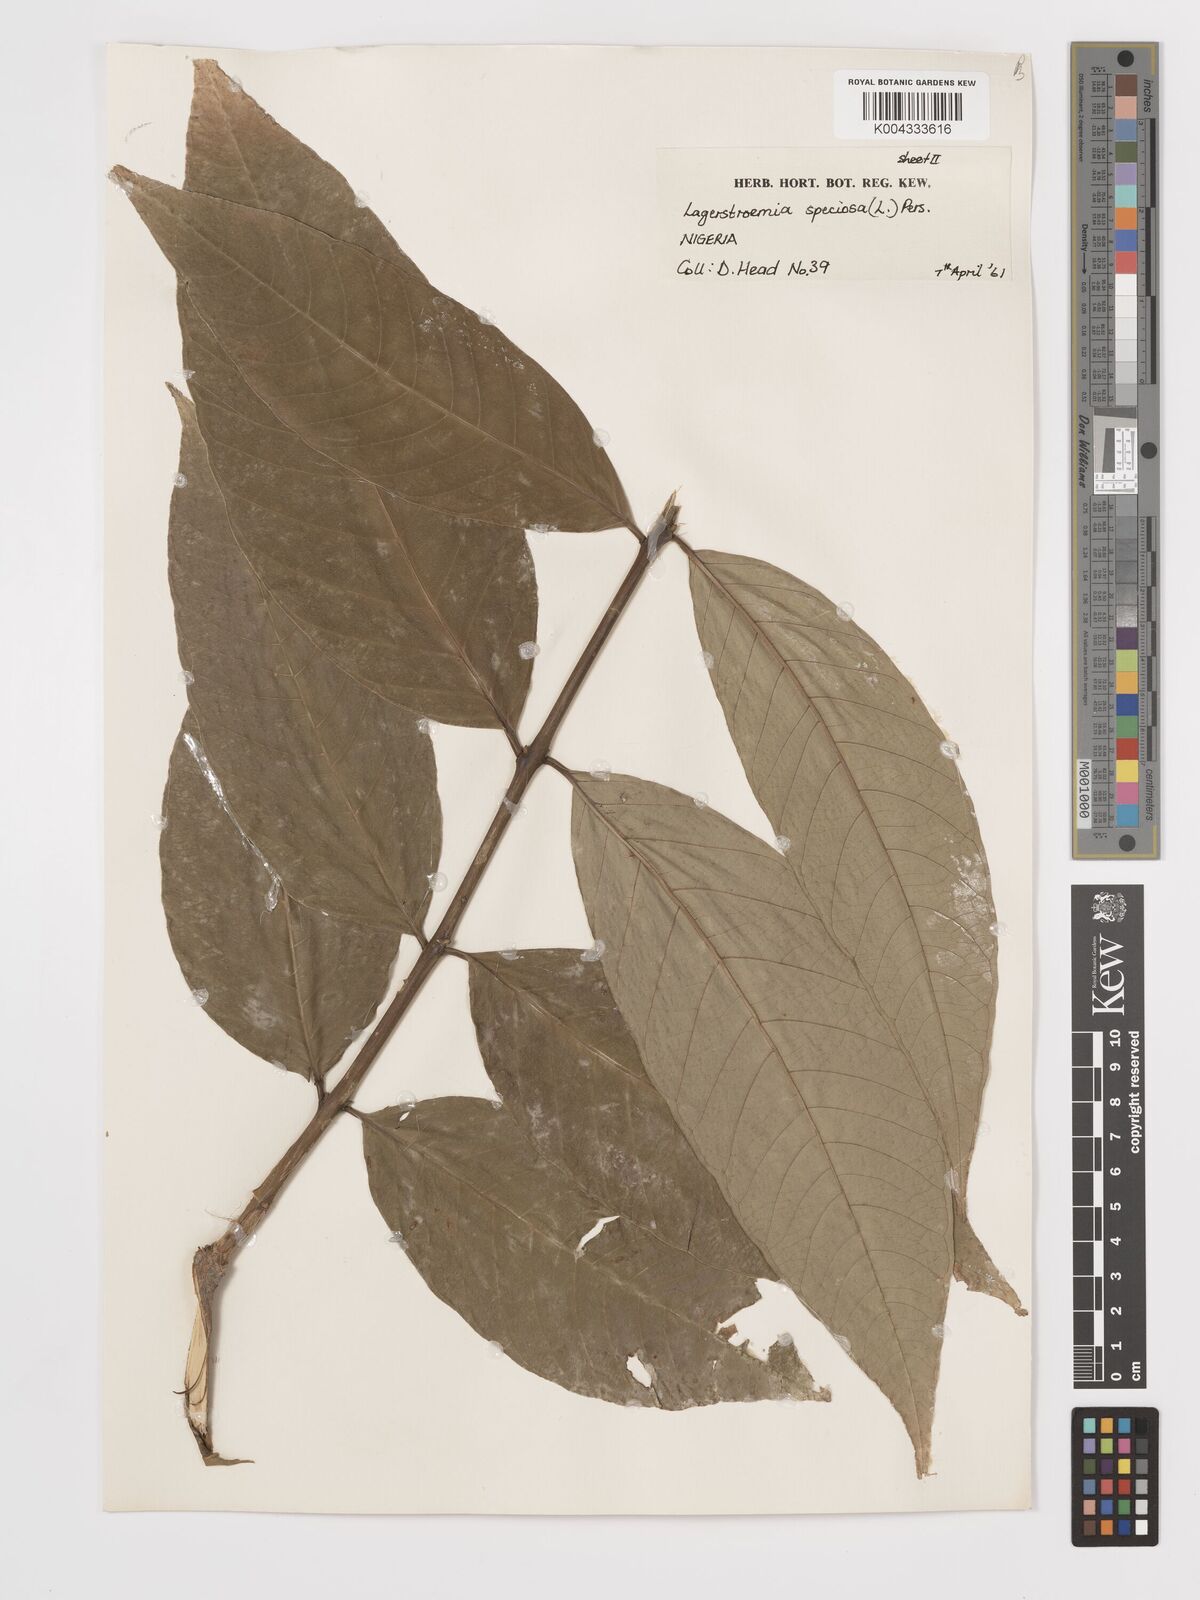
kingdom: Plantae
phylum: Tracheophyta
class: Magnoliopsida
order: Myrtales
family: Lythraceae
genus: Lagerstroemia
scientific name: Lagerstroemia speciosa
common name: Queen's crape-myrtle
